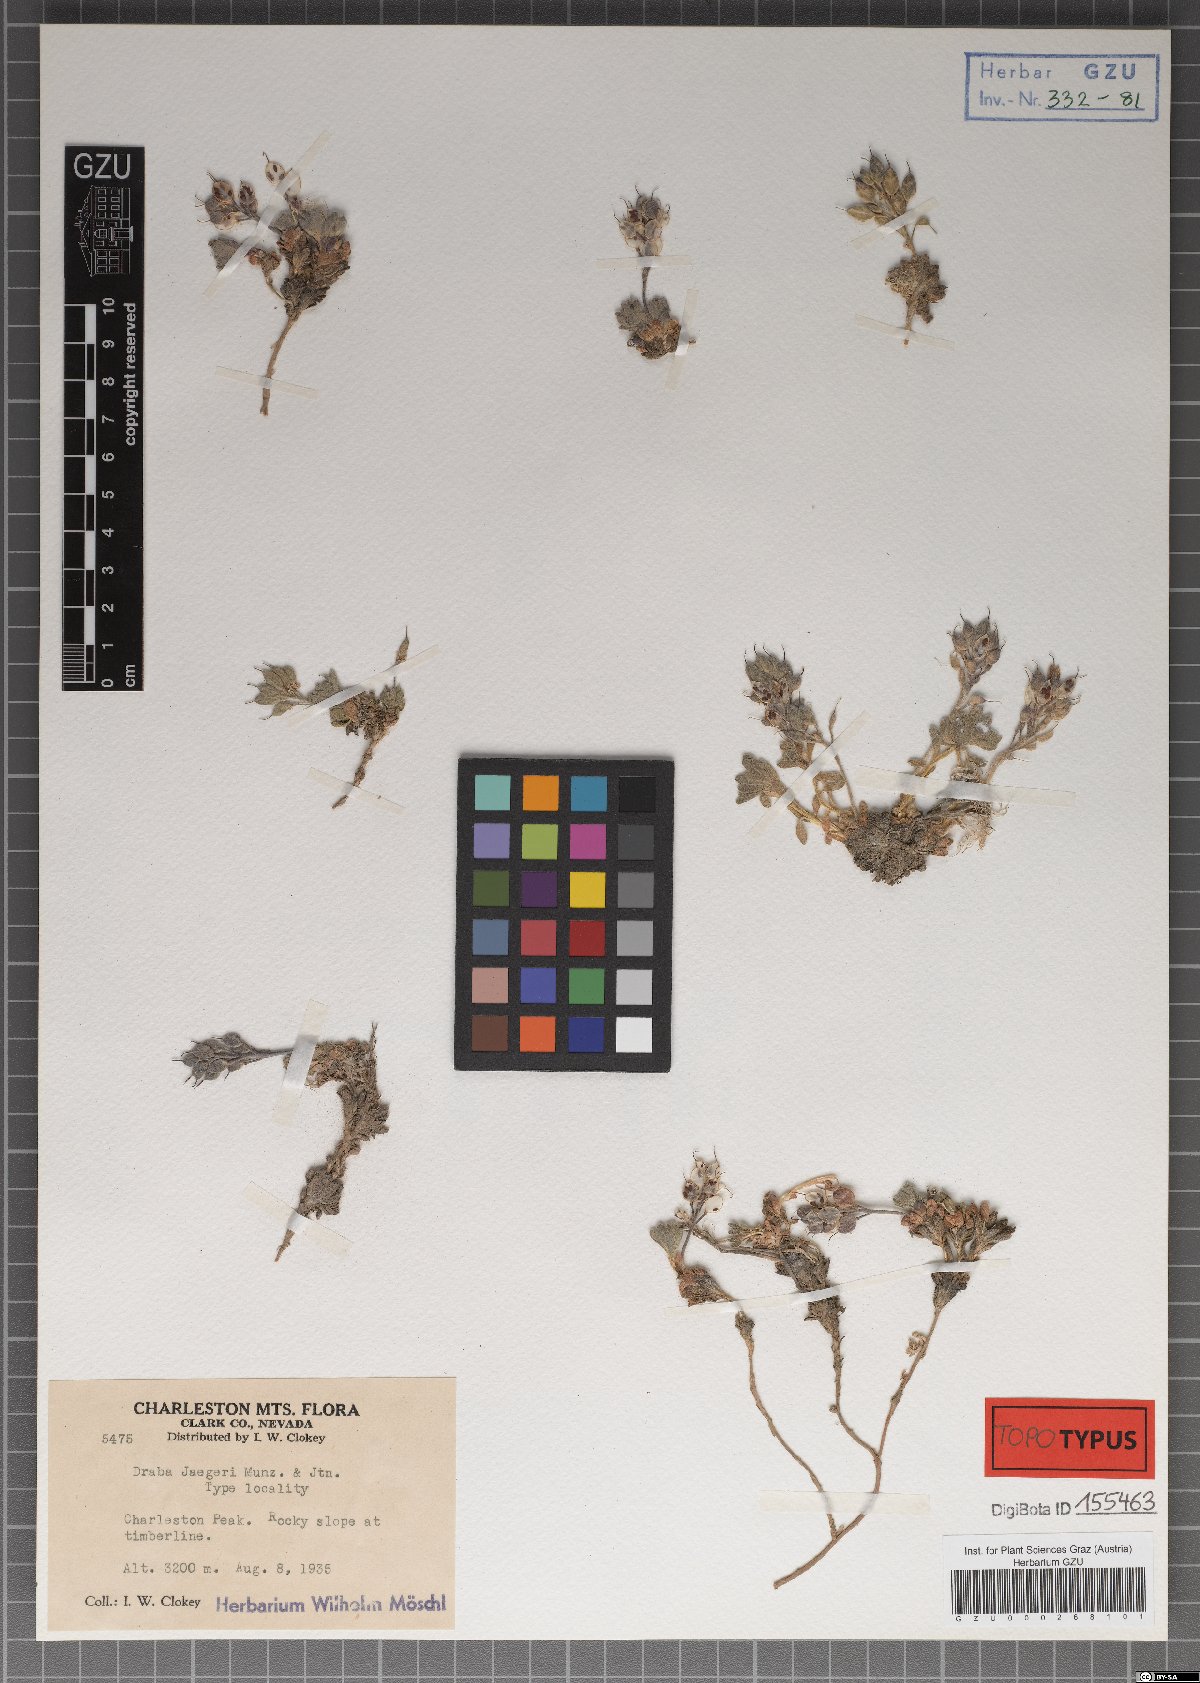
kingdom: Plantae
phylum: Tracheophyta
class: Magnoliopsida
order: Brassicales
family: Brassicaceae
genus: Draba
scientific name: Draba jaegeri
